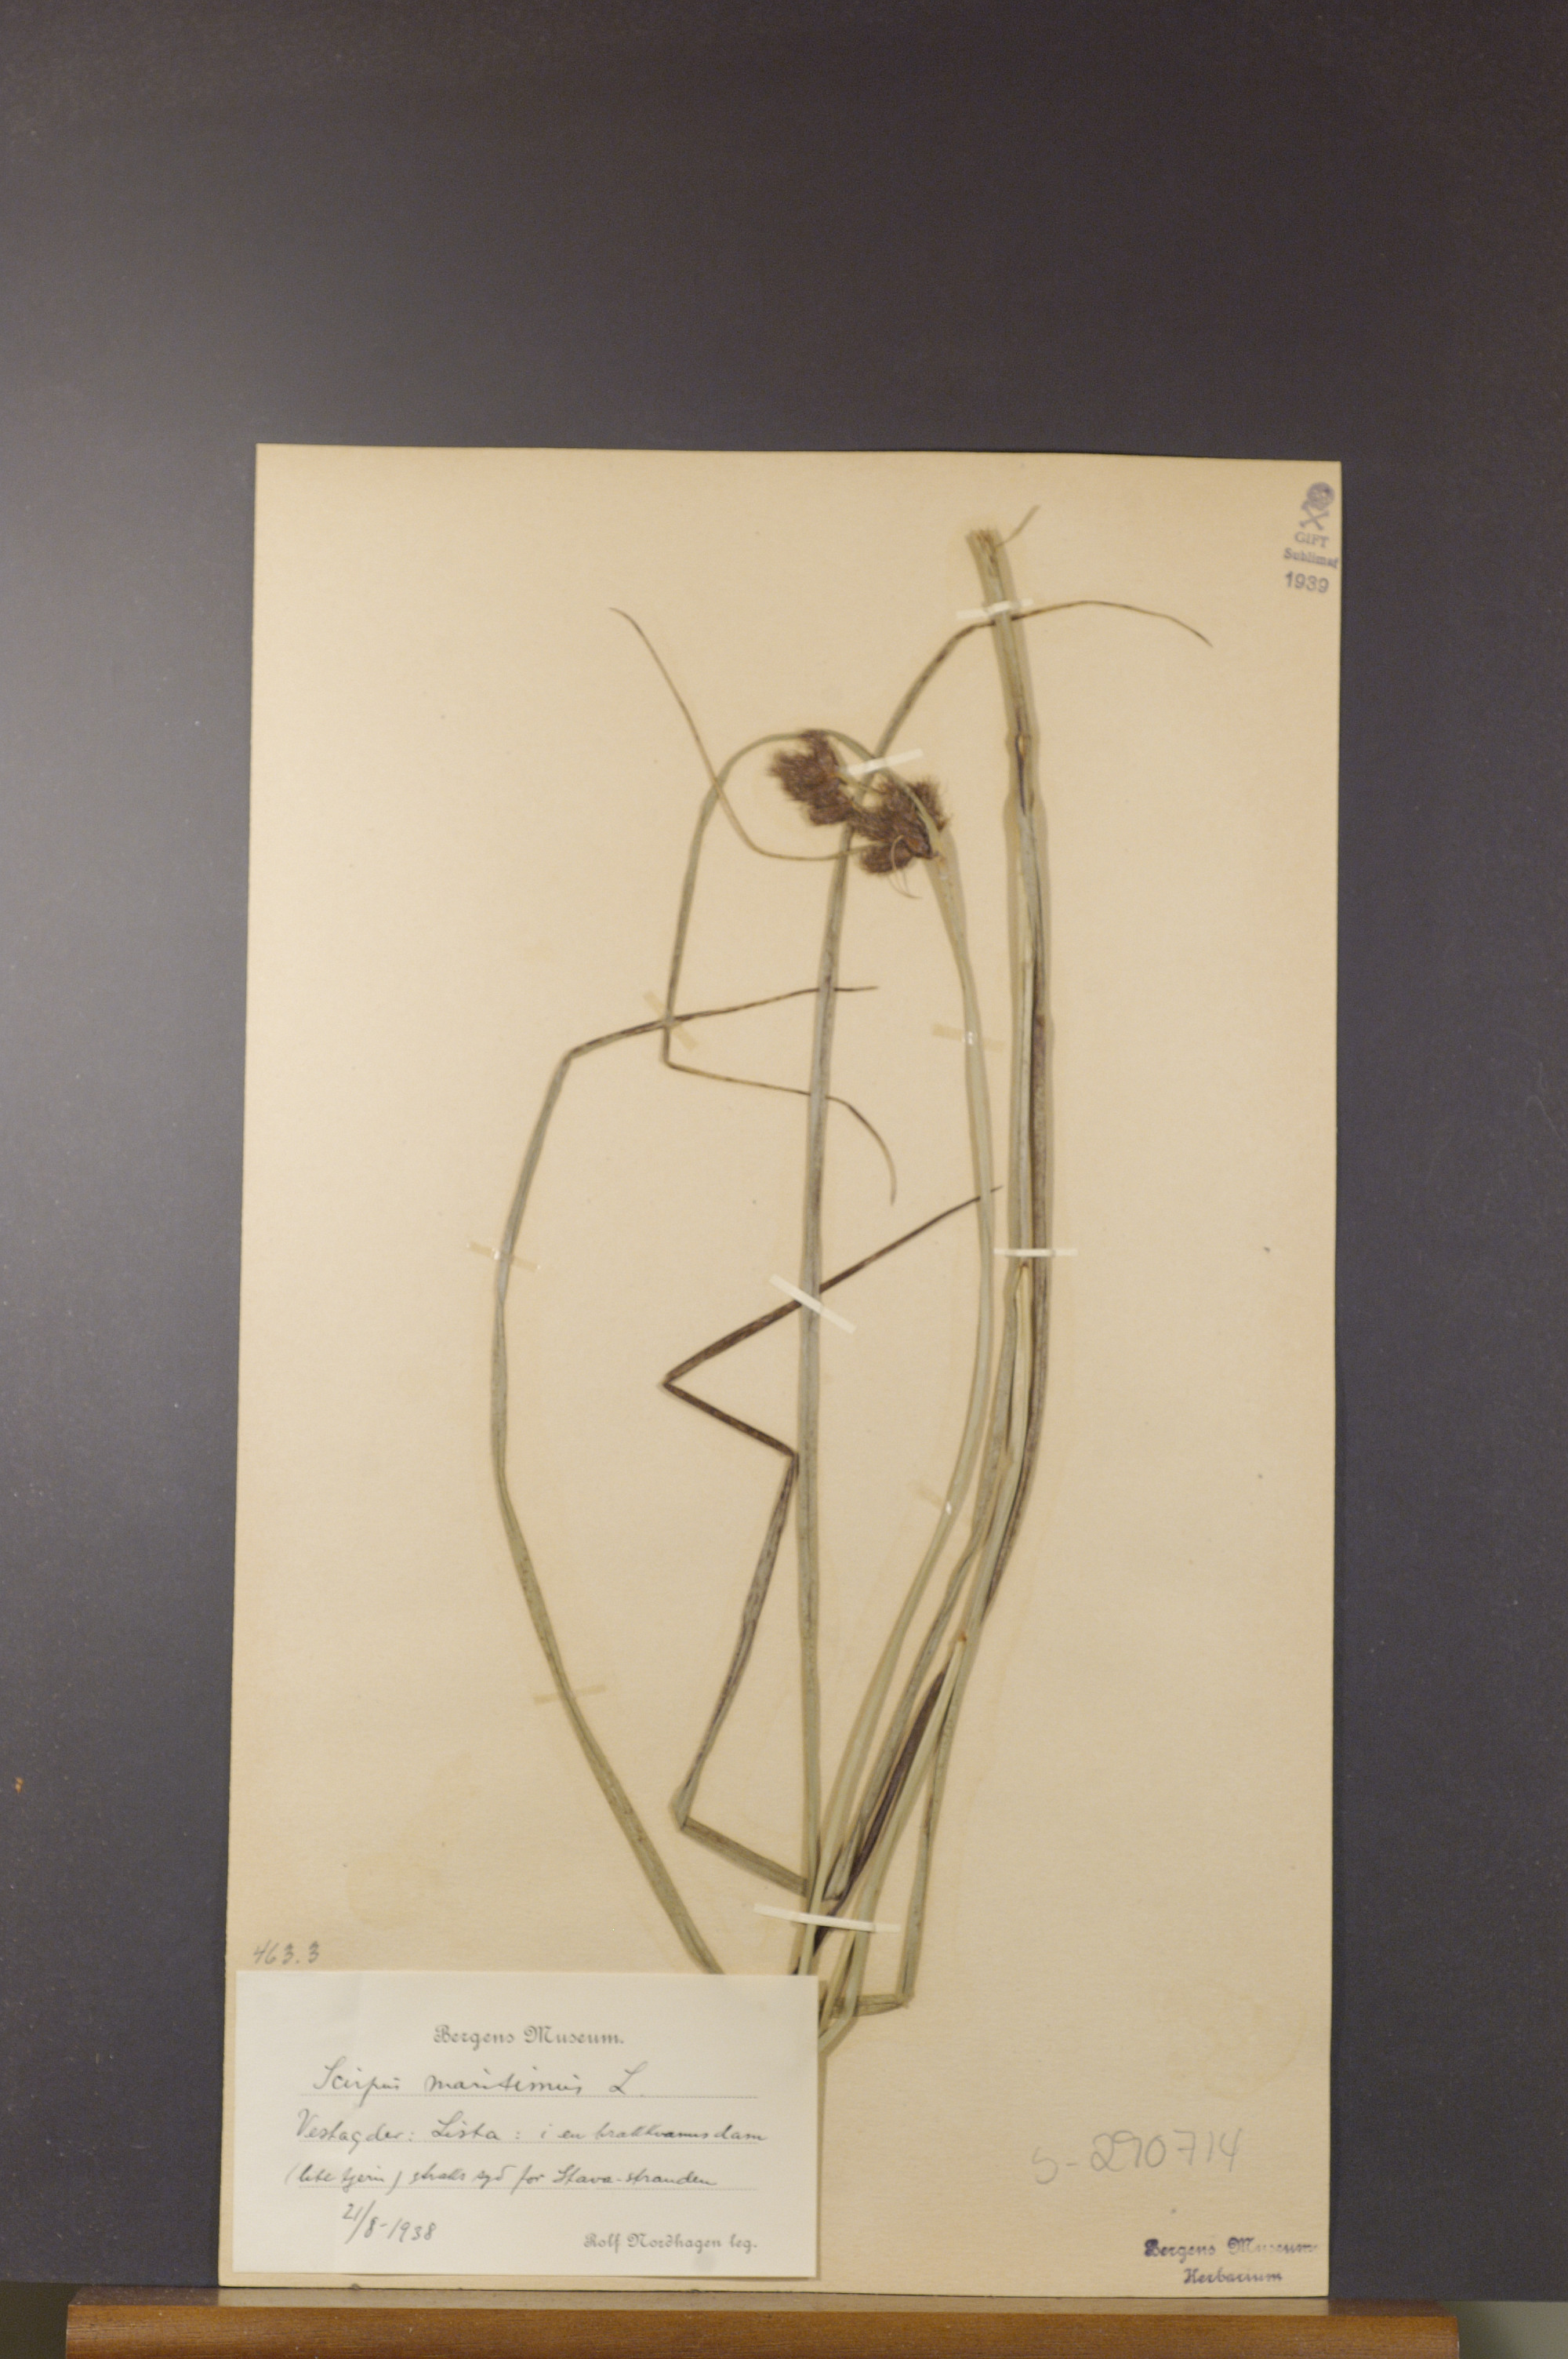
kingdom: Plantae
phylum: Tracheophyta
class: Liliopsida
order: Poales
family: Cyperaceae
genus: Bolboschoenus
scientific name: Bolboschoenus maritimus
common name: Sea club-rush
